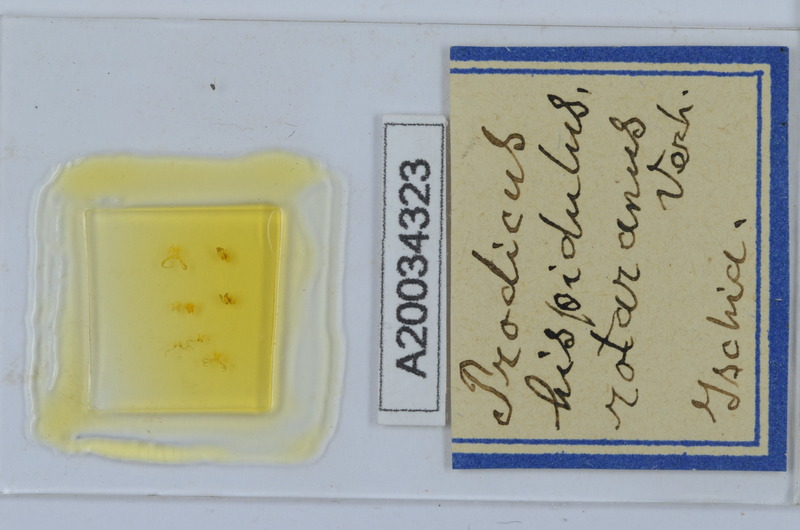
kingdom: Animalia
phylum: Arthropoda
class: Diplopoda
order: Chordeumatida
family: Anthroleucosomatidae
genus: Anamastigona
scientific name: Anamastigona hispidula
